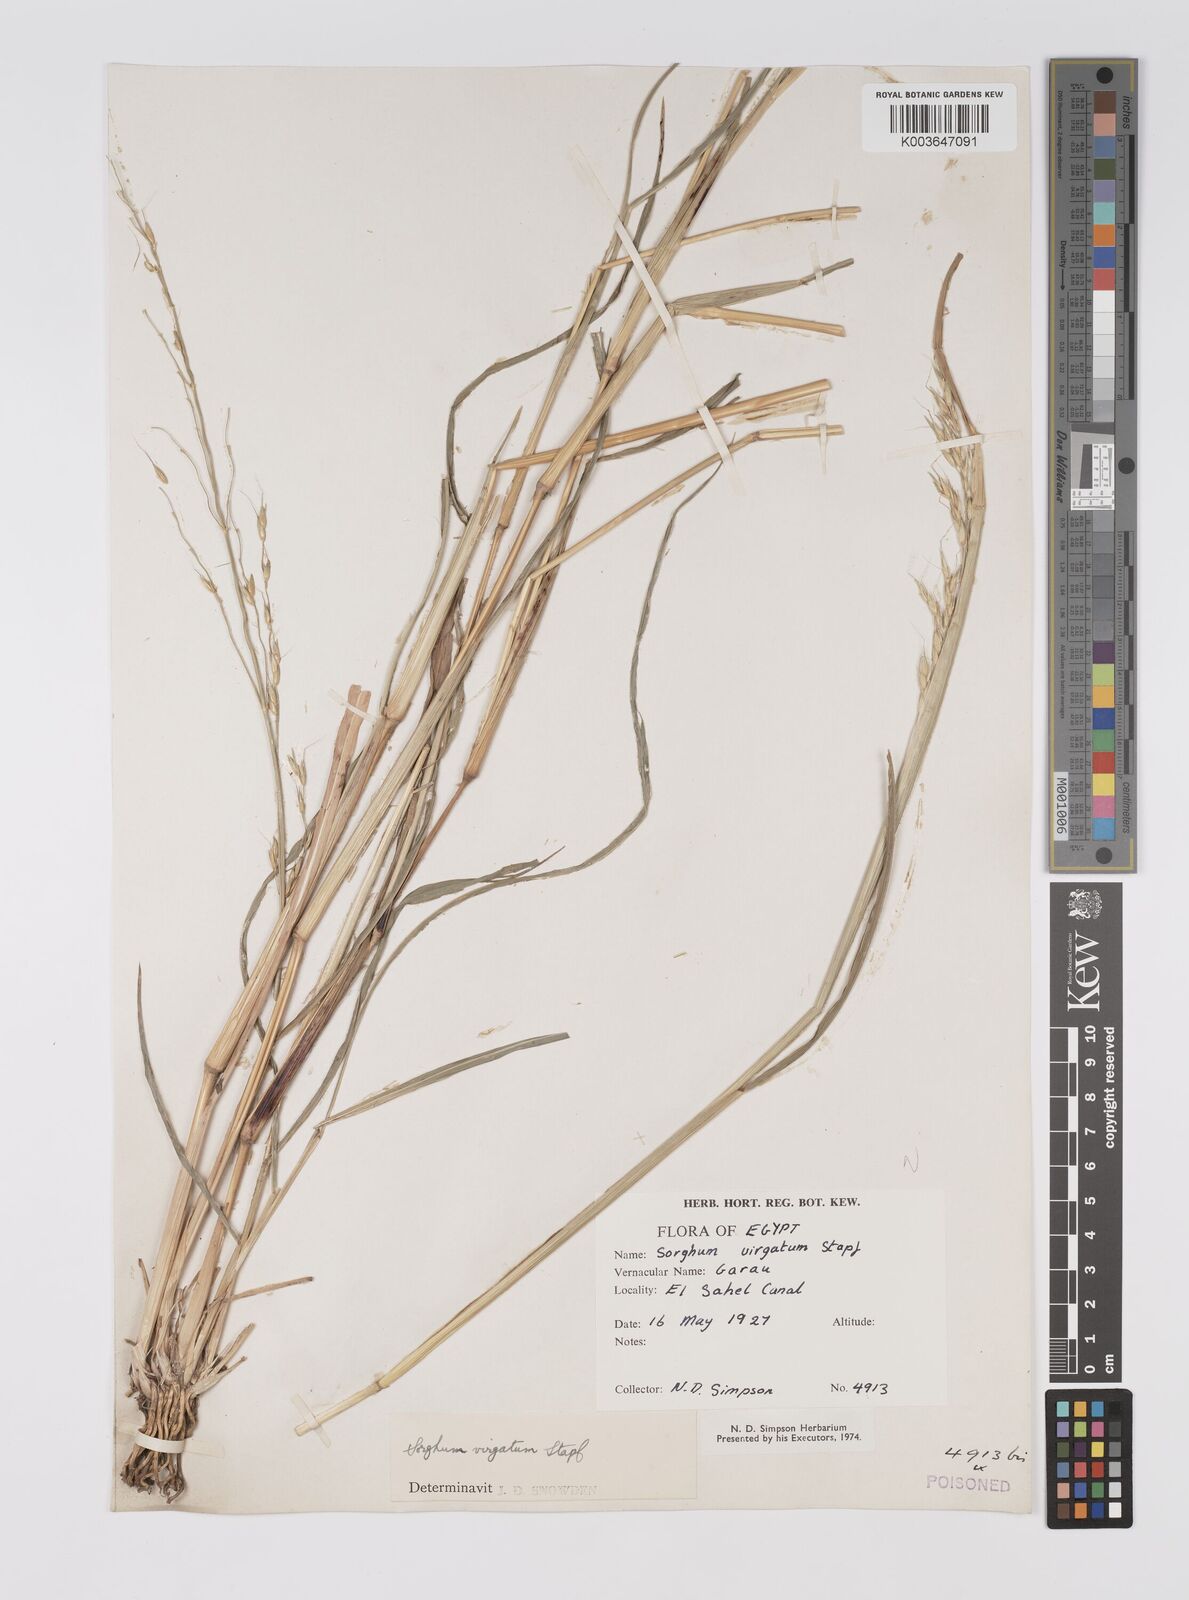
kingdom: Plantae
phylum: Tracheophyta
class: Liliopsida
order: Poales
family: Poaceae
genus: Sorghum
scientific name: Sorghum virgatum
